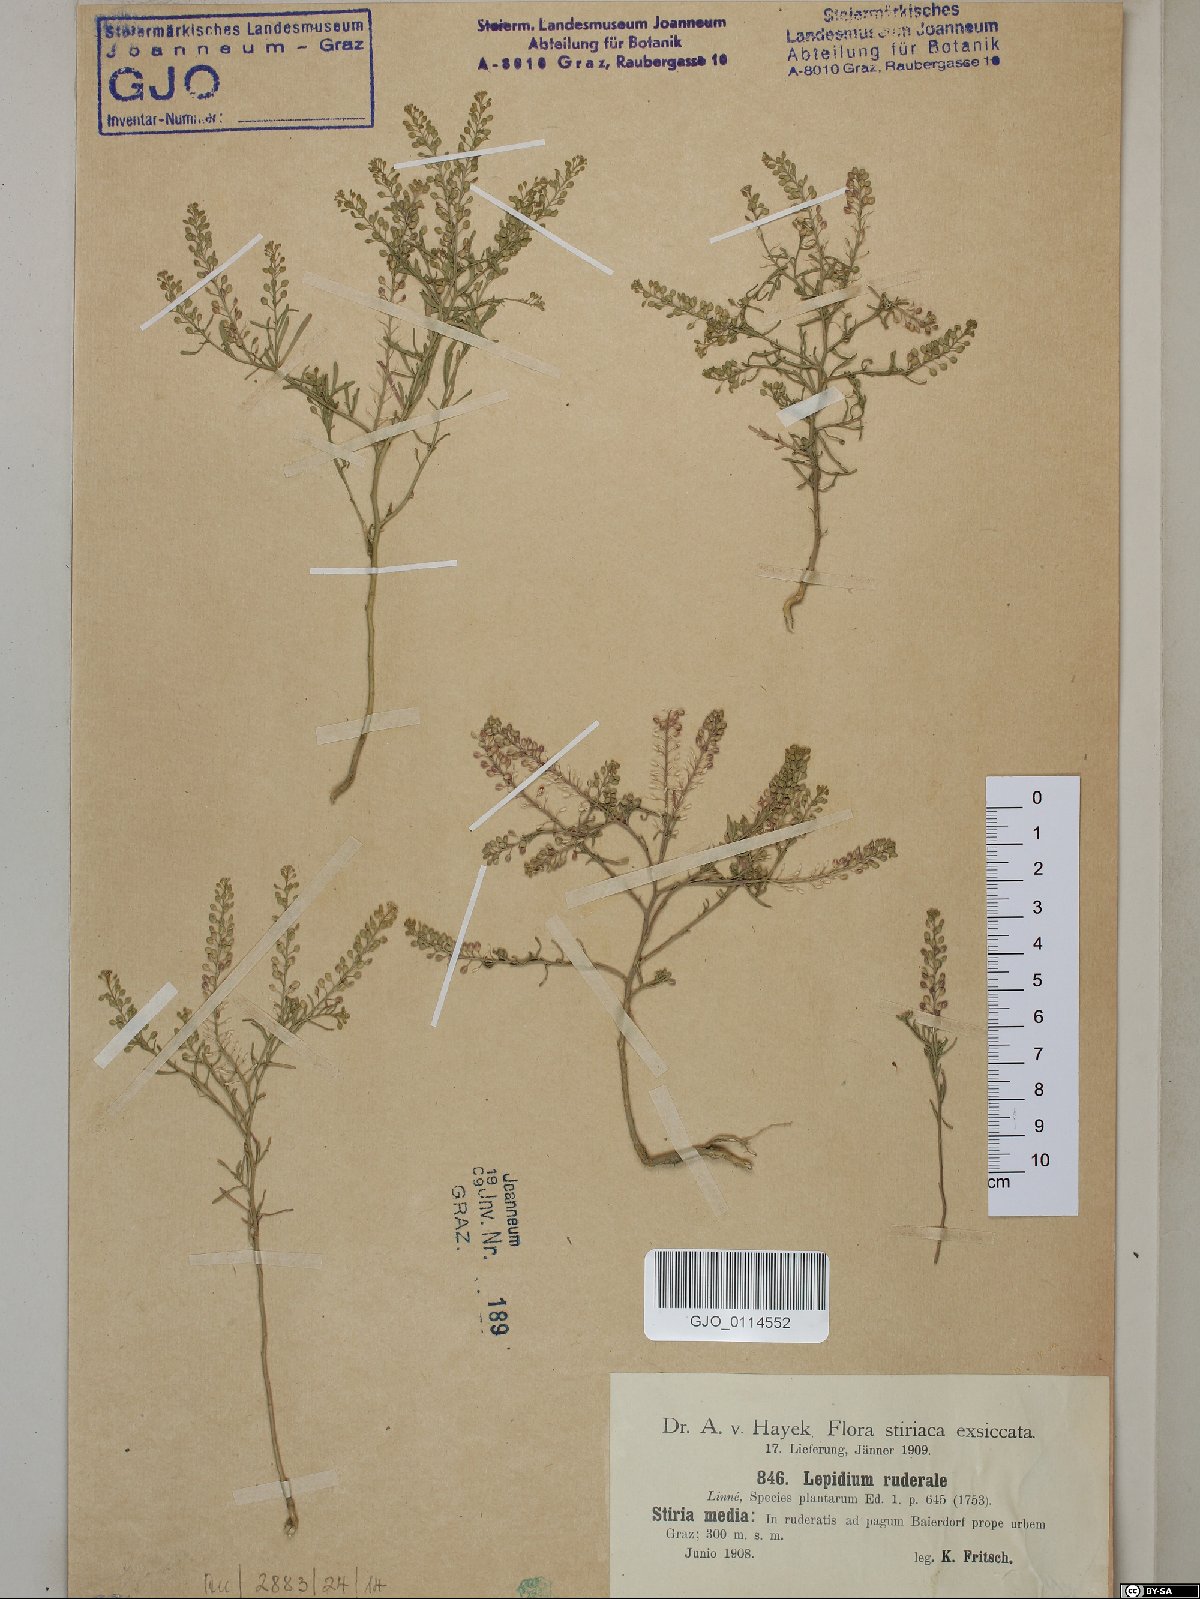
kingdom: Plantae
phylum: Tracheophyta
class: Magnoliopsida
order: Brassicales
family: Brassicaceae
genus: Lepidium
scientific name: Lepidium ruderale
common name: Narrow-leaved pepperwort
